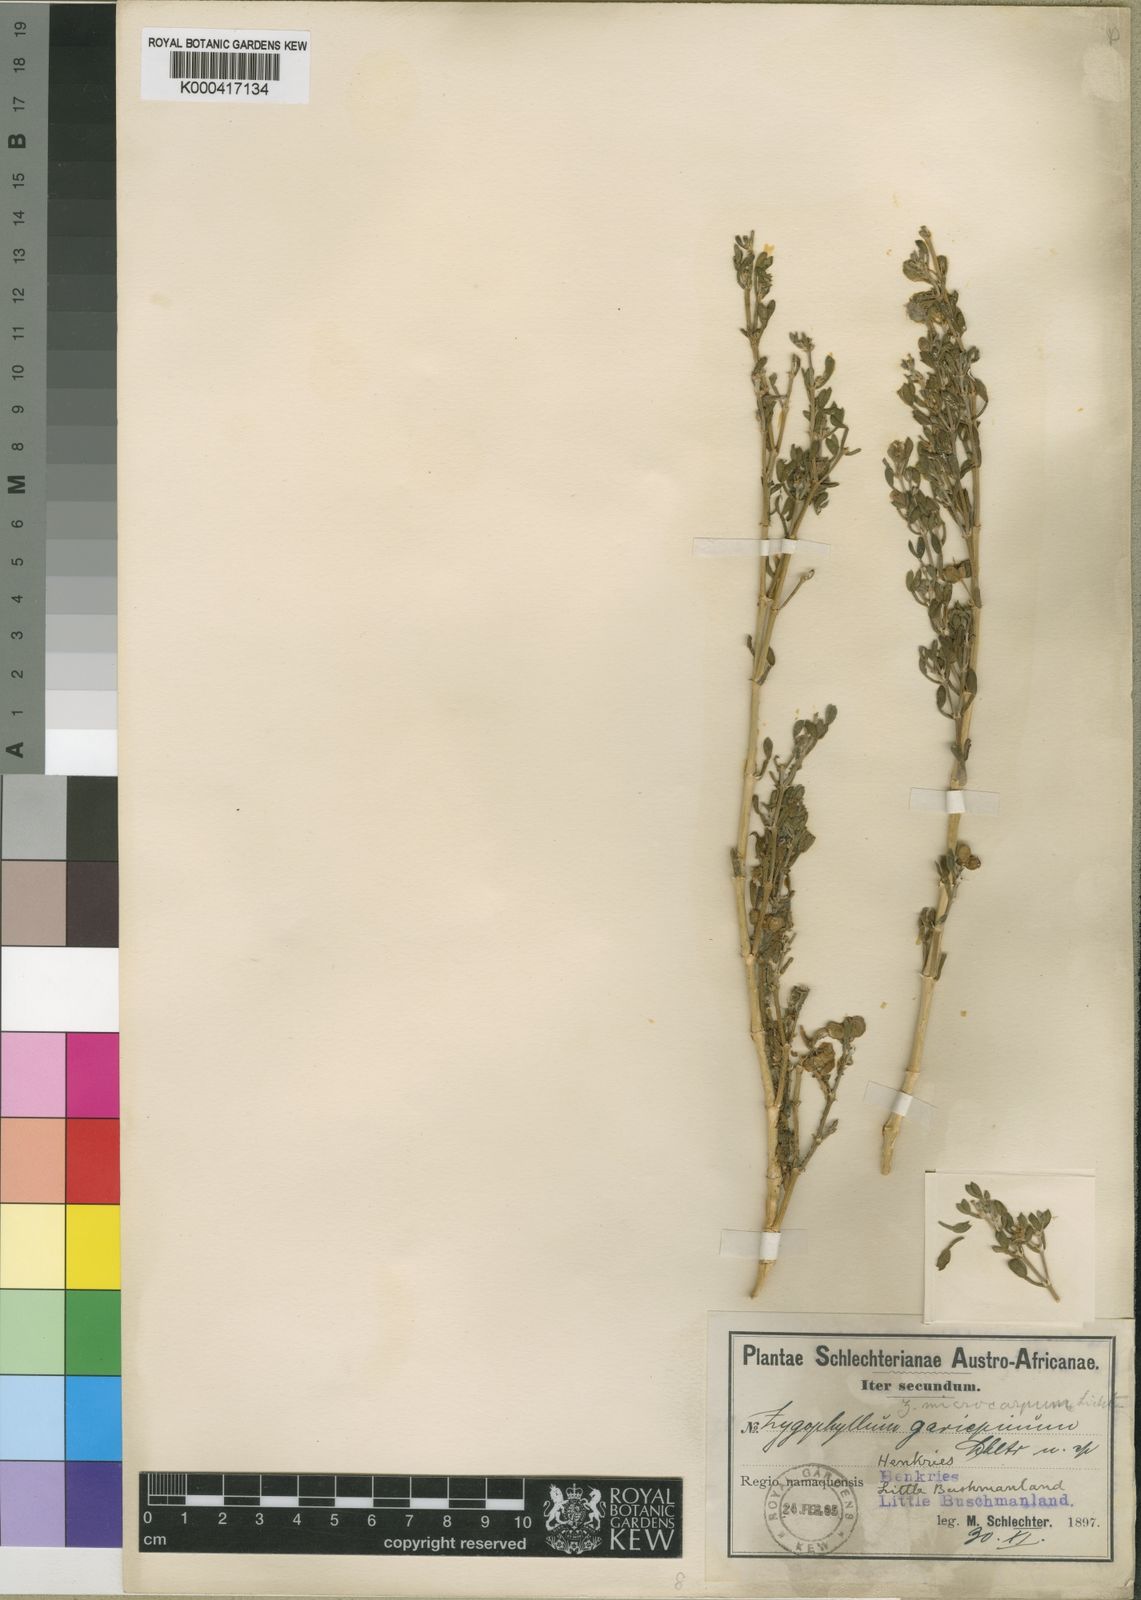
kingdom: Plantae
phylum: Tracheophyta
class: Magnoliopsida
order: Zygophyllales
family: Zygophyllaceae
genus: Tetraena
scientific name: Tetraena microcarpa
